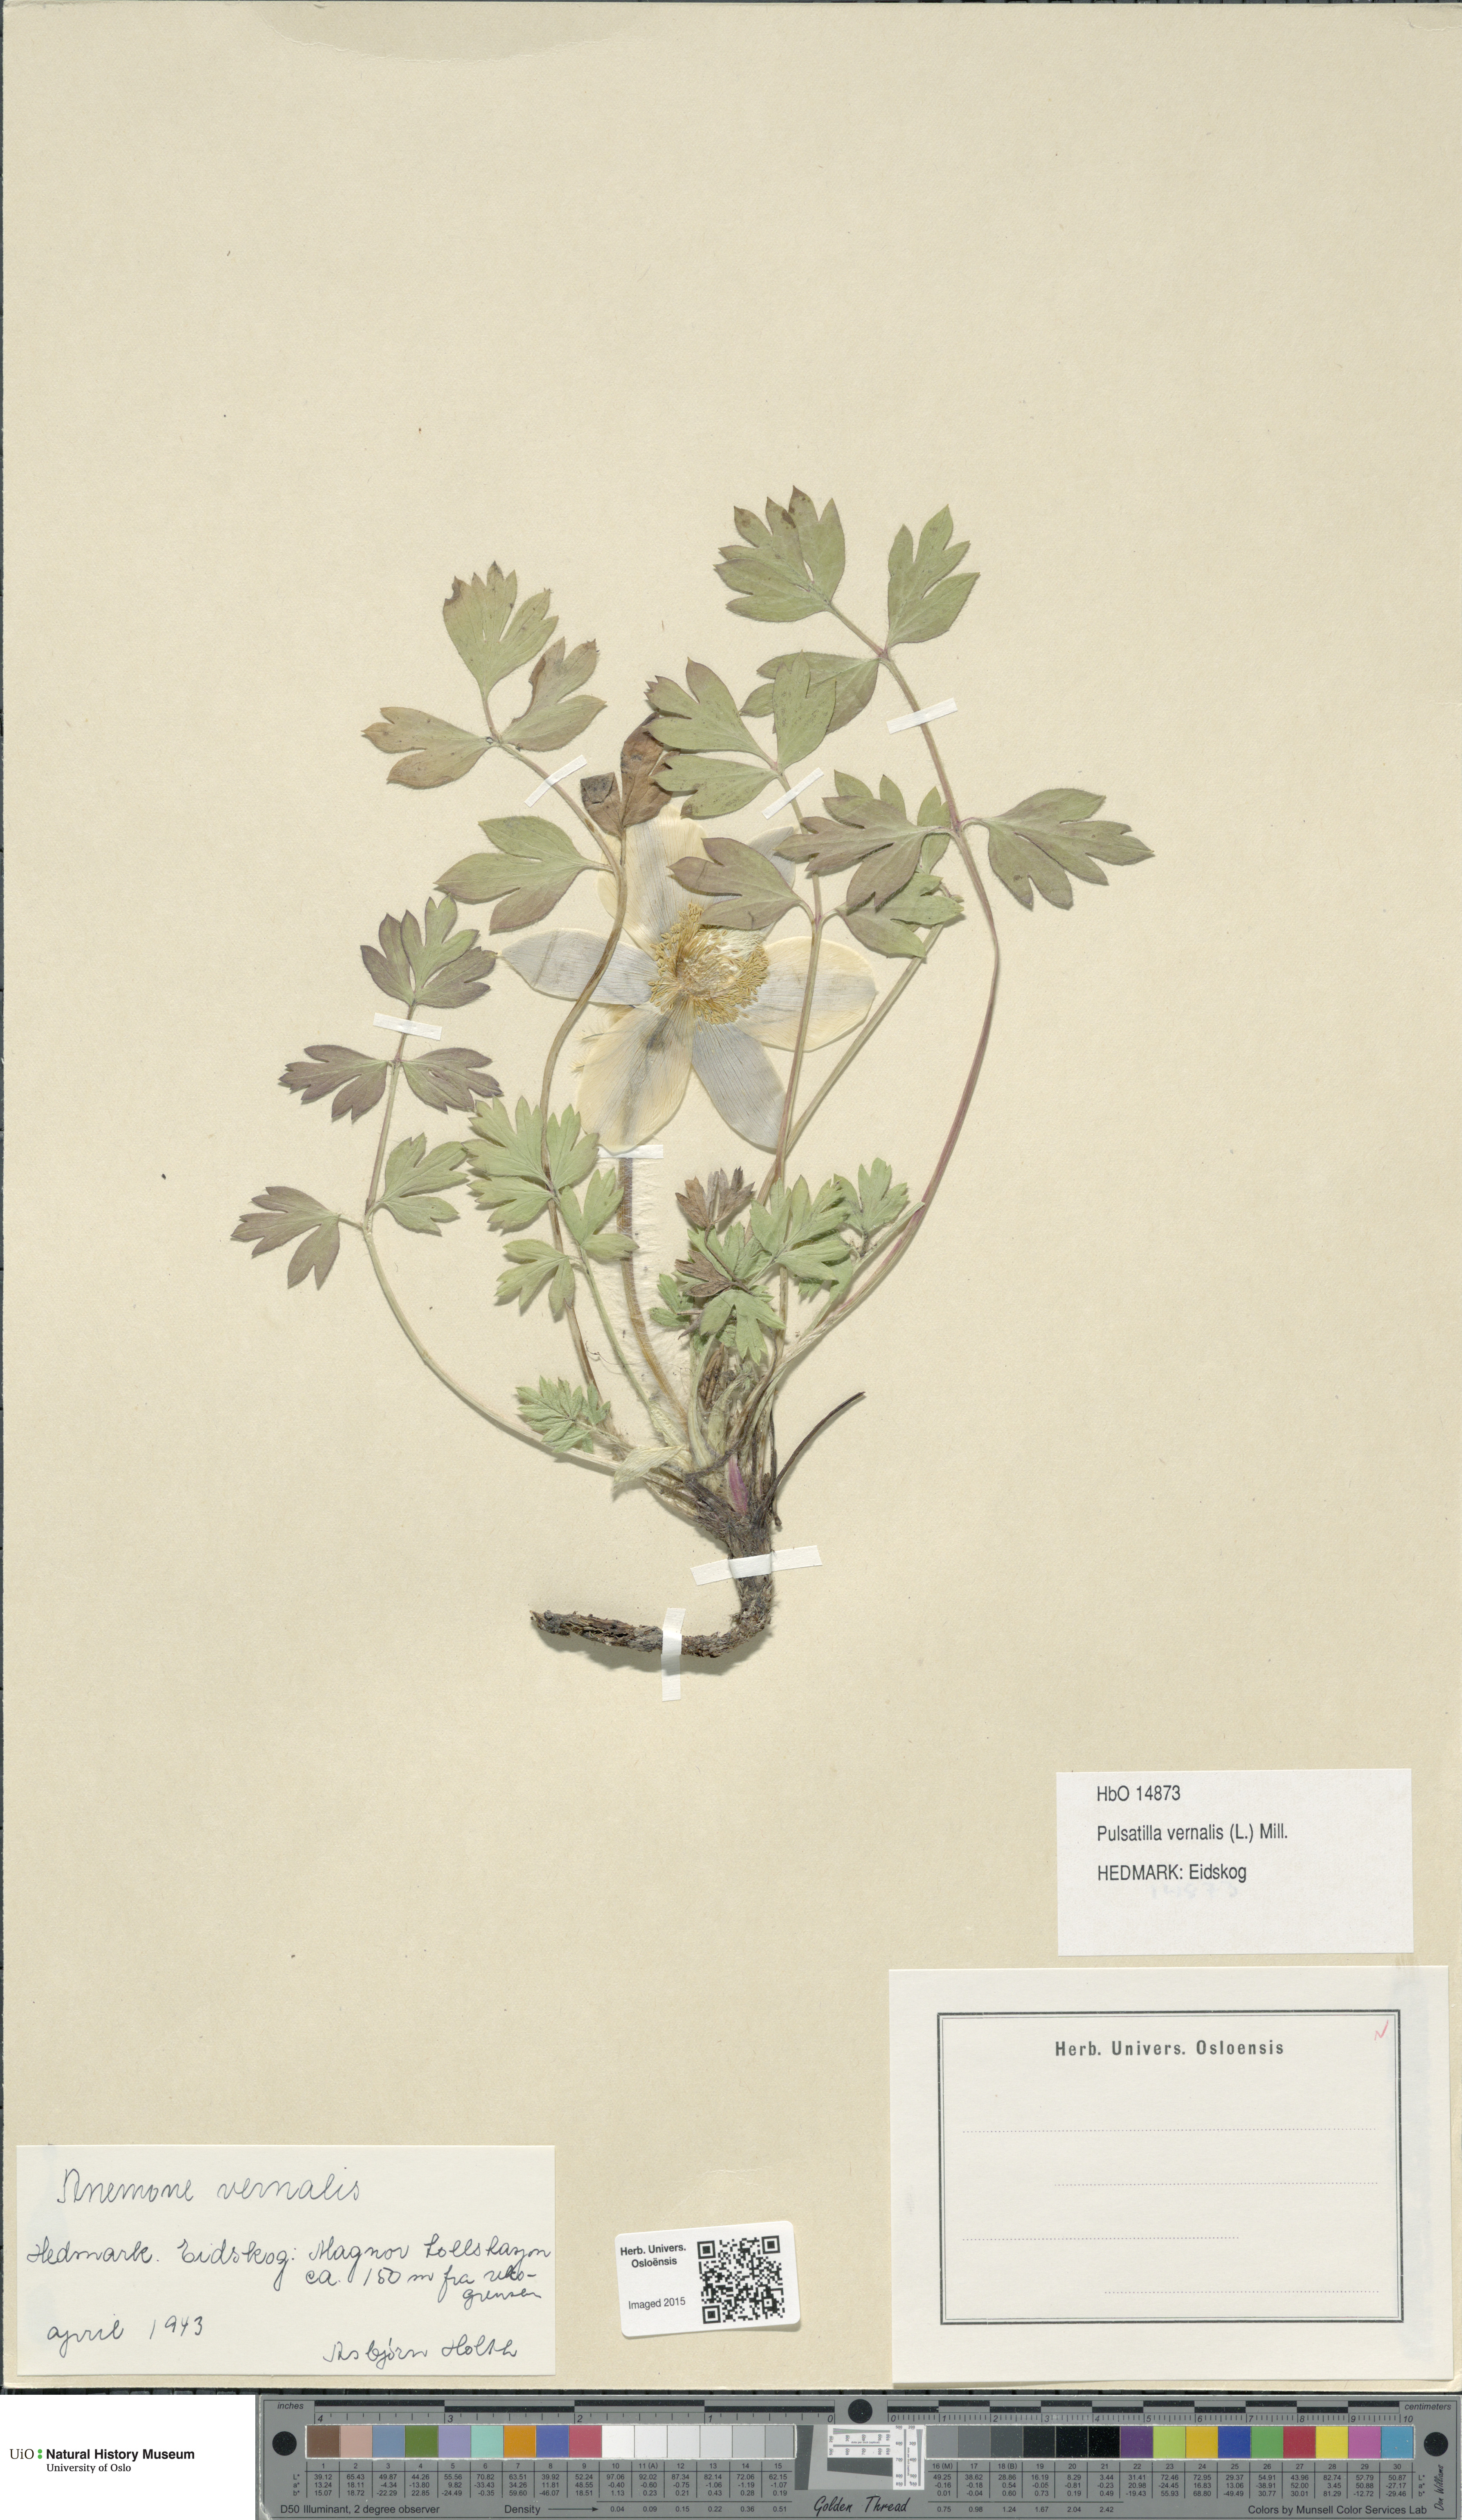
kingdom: Plantae
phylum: Tracheophyta
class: Magnoliopsida
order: Ranunculales
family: Ranunculaceae
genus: Pulsatilla
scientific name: Pulsatilla vernalis
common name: Spring pasque flower
